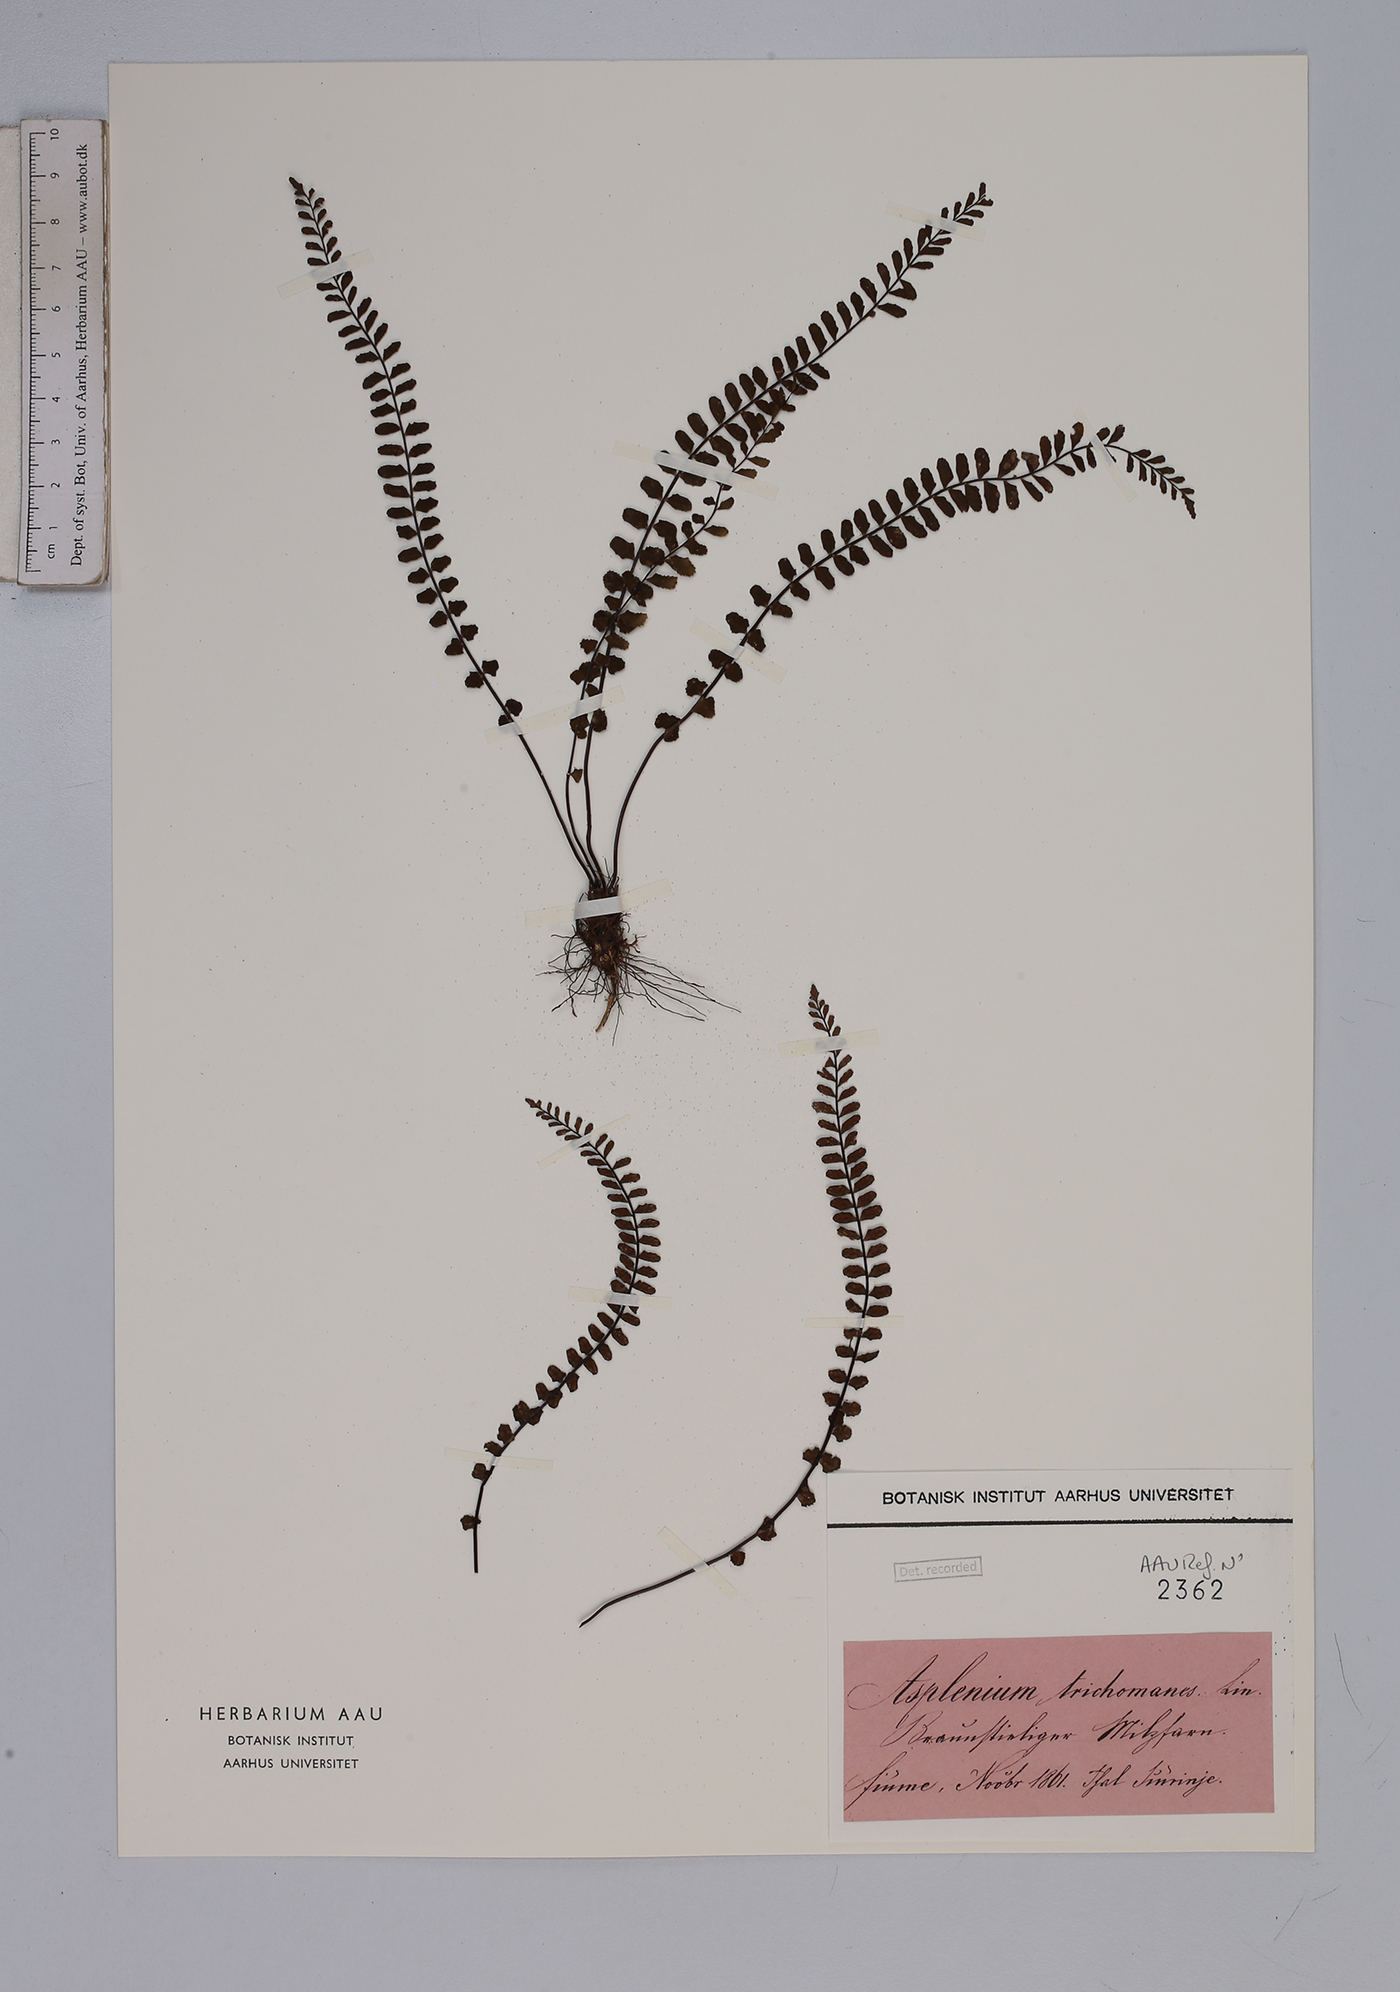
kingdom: Plantae
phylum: Tracheophyta
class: Polypodiopsida
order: Polypodiales
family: Aspleniaceae
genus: Asplenium
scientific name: Asplenium trichomanes
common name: Maidenhair spleenwort
